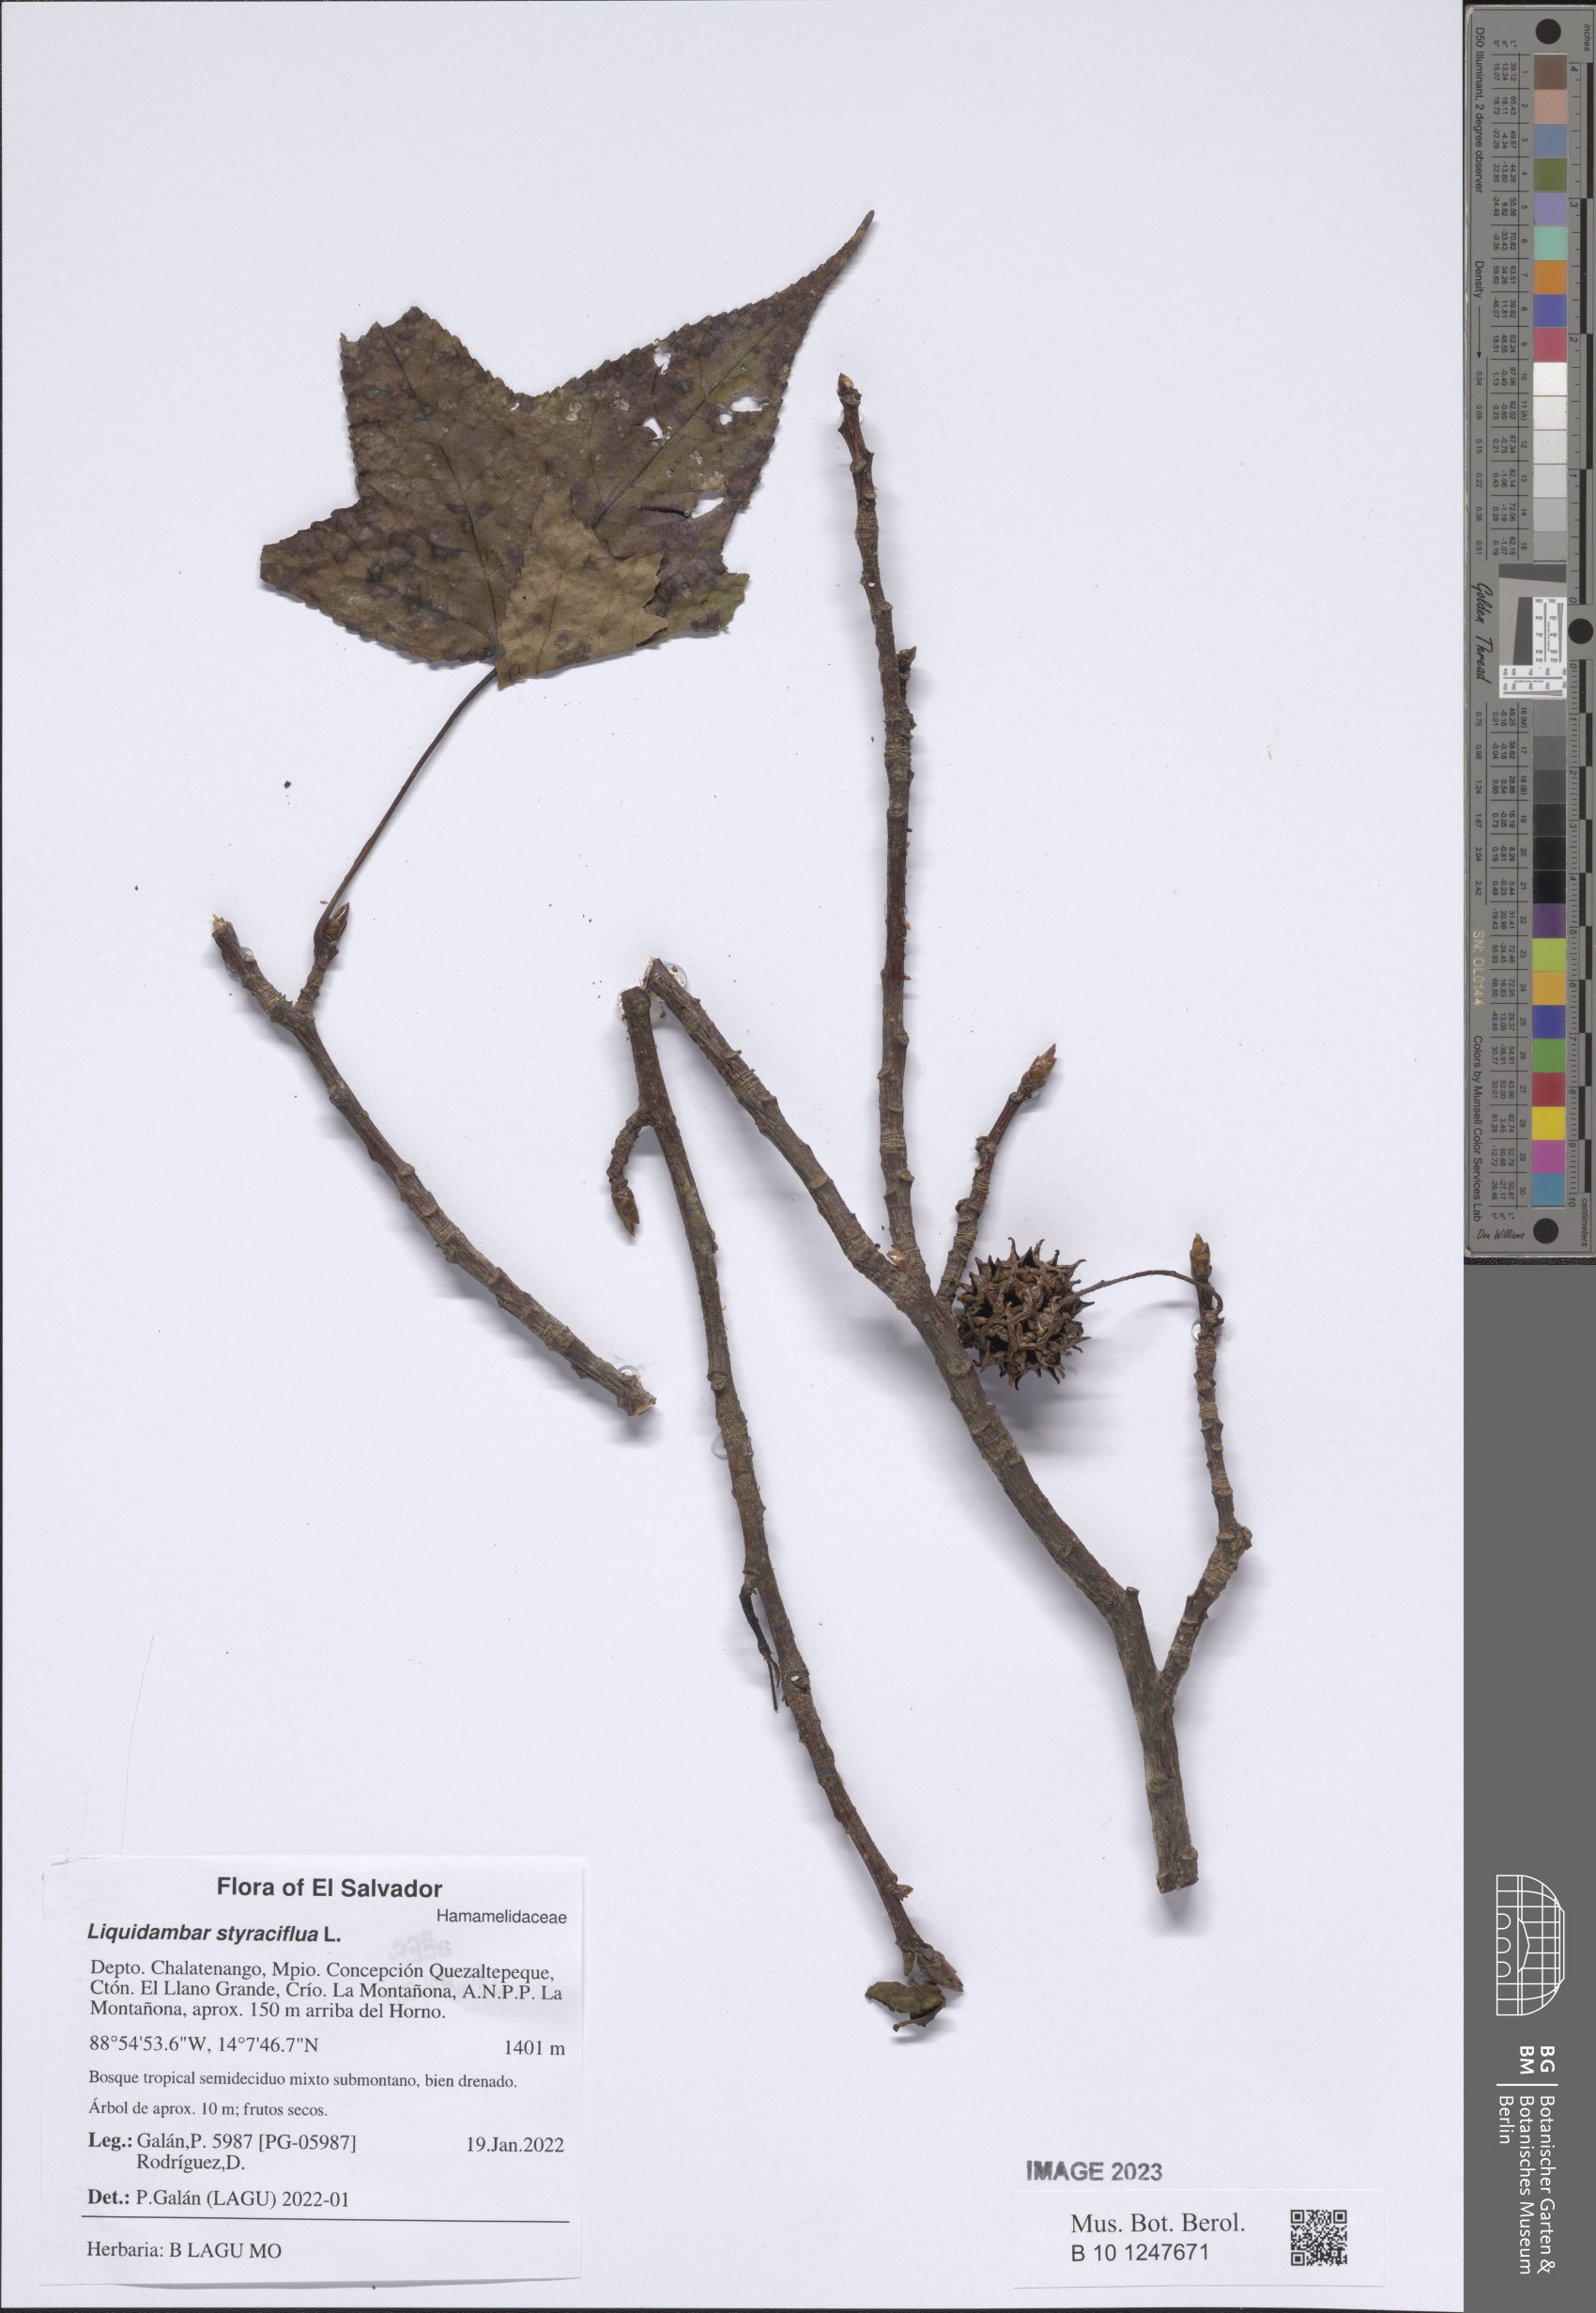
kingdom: Plantae
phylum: Tracheophyta
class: Magnoliopsida
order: Saxifragales
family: Altingiaceae
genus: Liquidambar
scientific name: Liquidambar styraciflua
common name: Sweet gum
